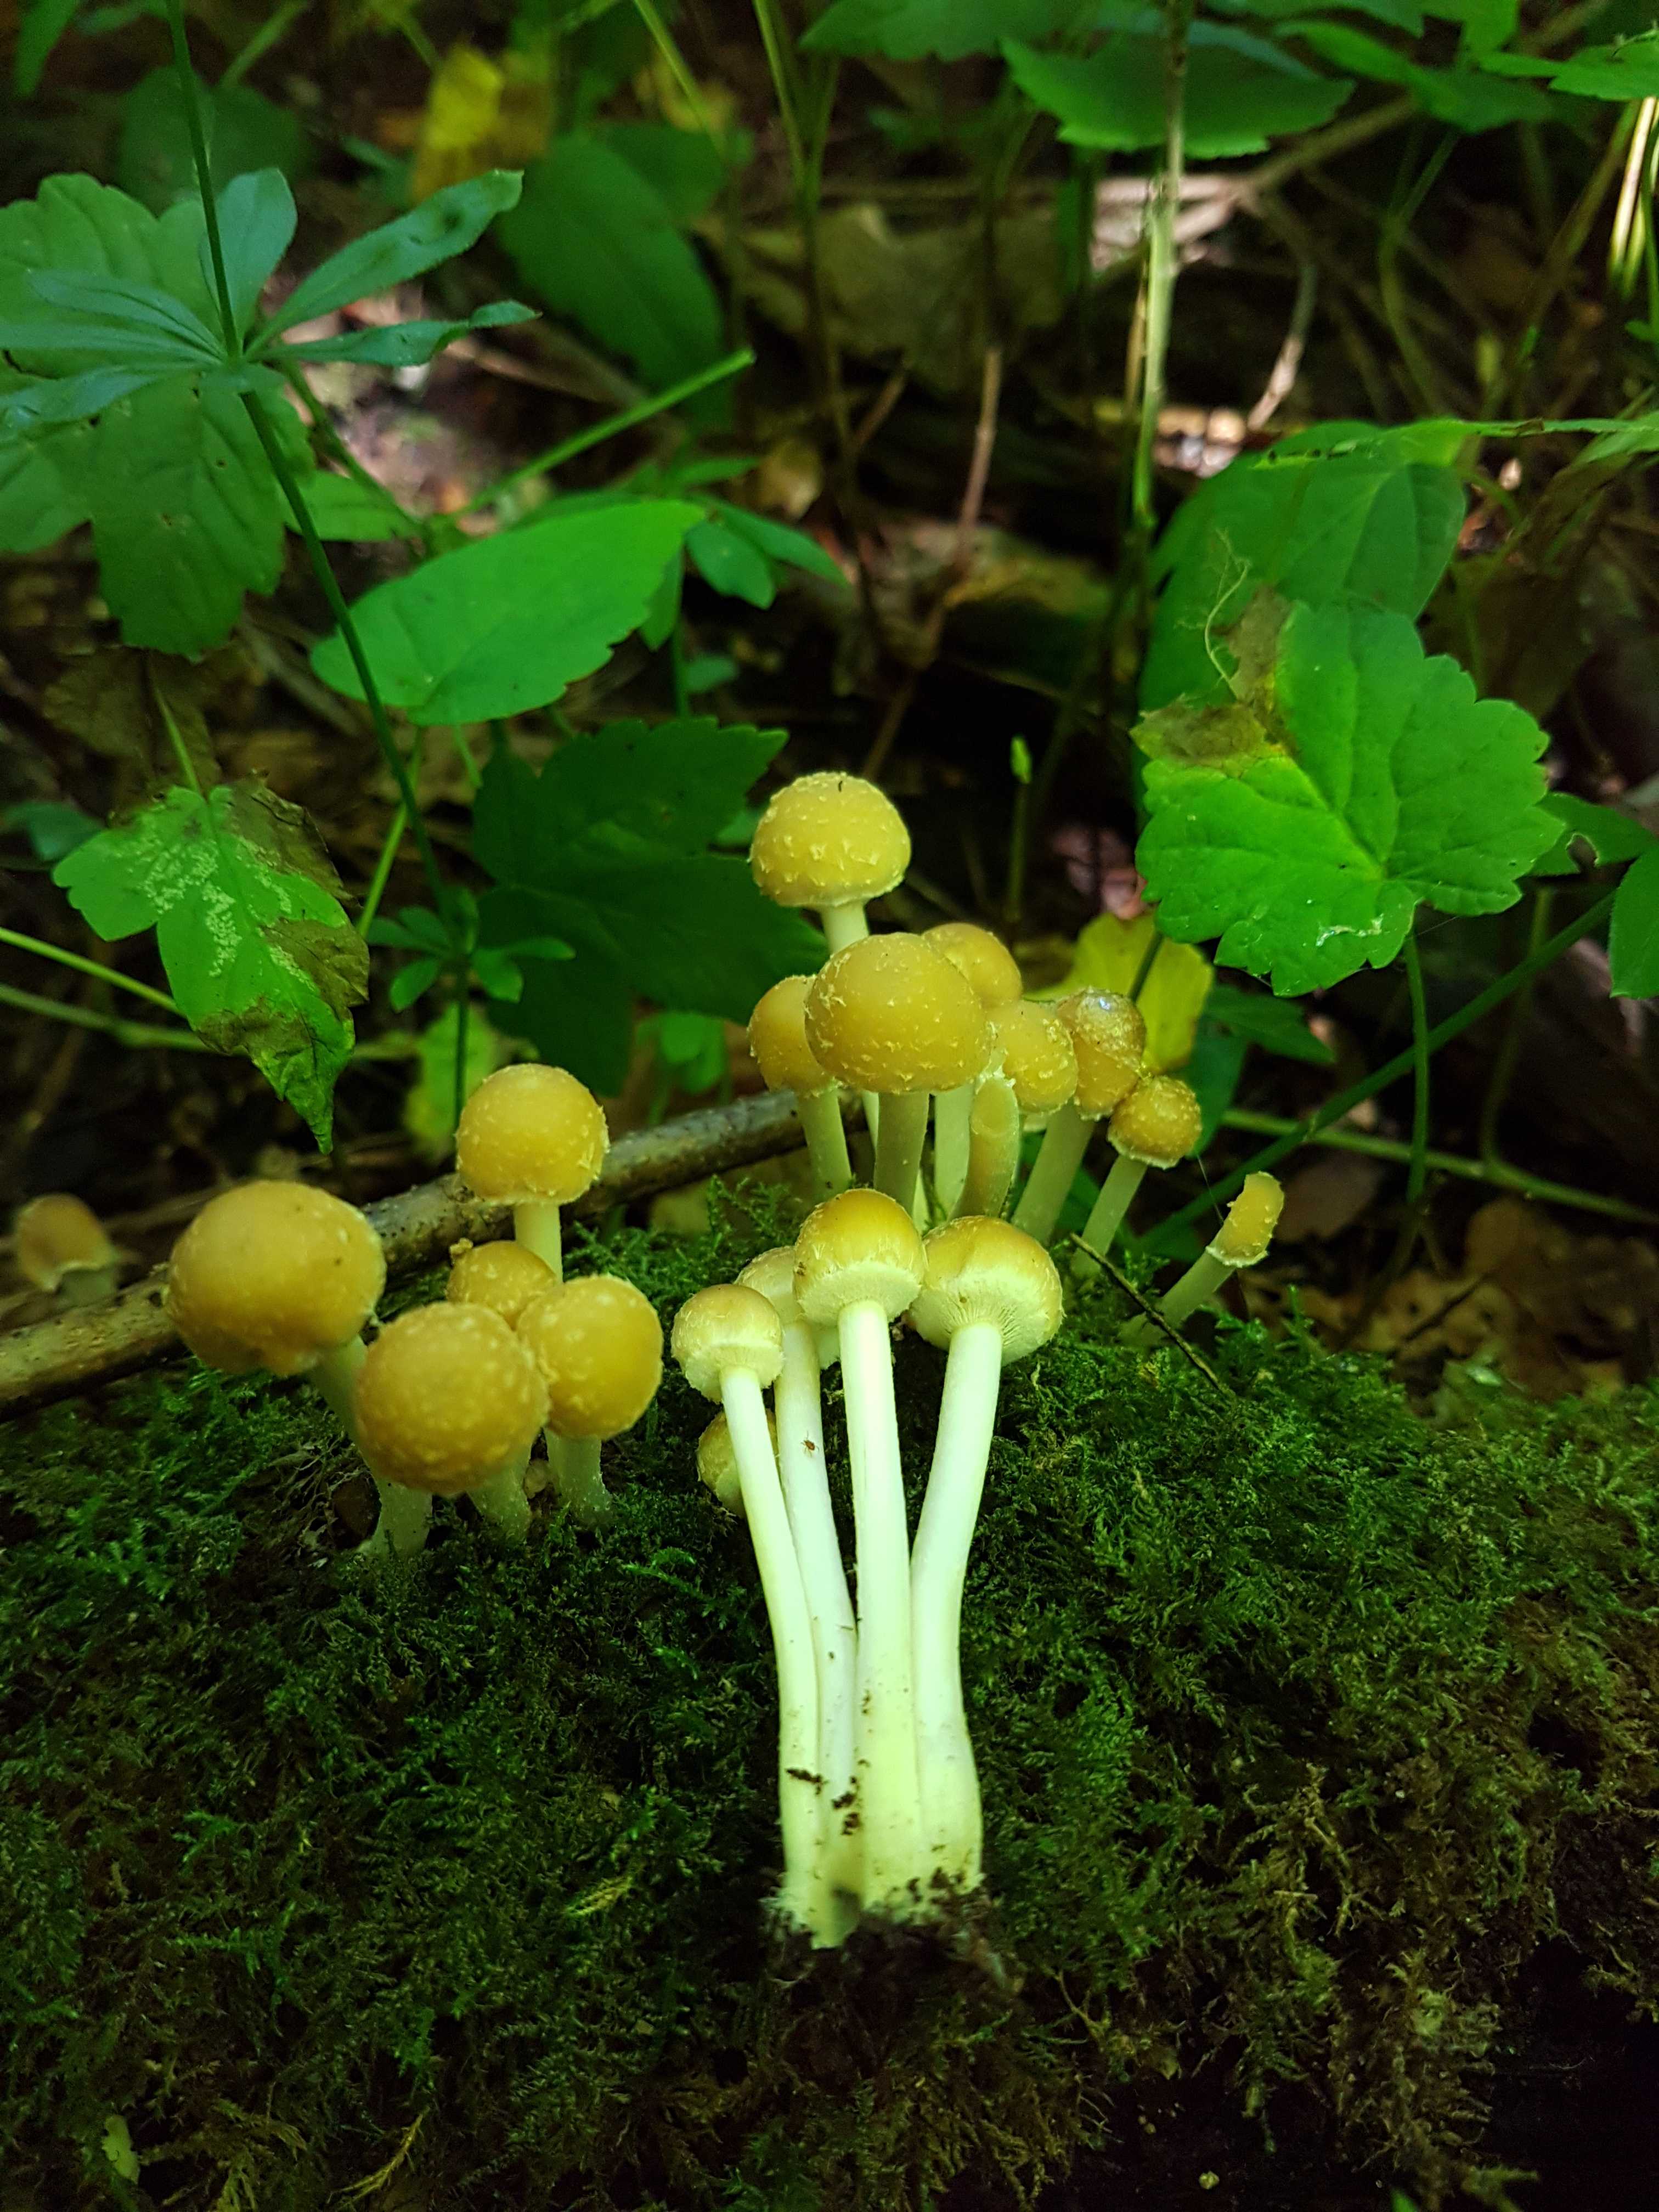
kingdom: Fungi
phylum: Basidiomycota
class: Agaricomycetes
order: Agaricales
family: Psathyrellaceae
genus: Candolleomyces
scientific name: Candolleomyces candolleanus
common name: Candolles mørkhat
